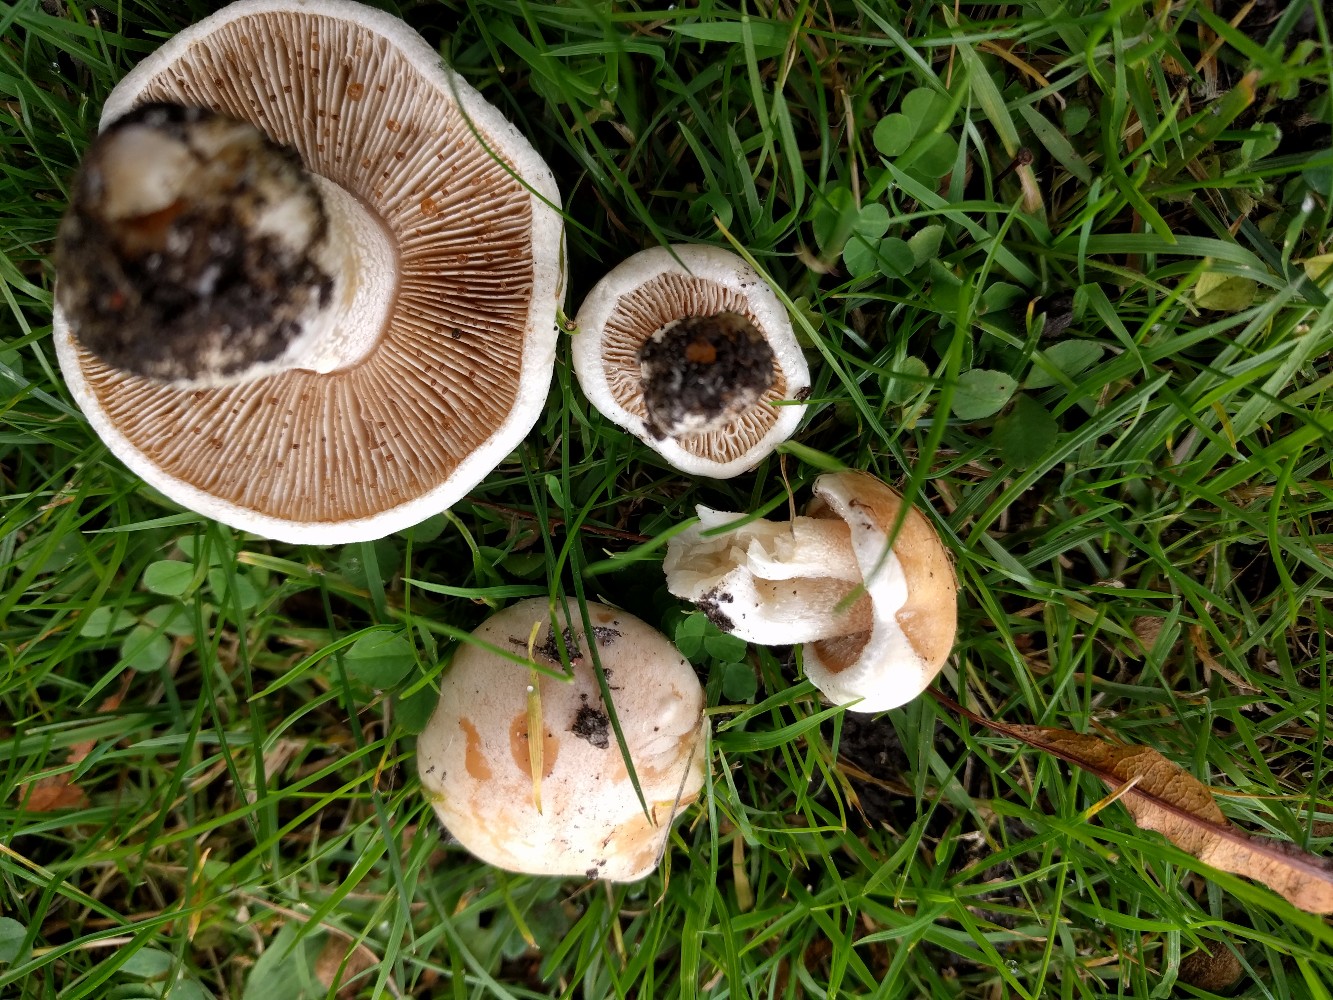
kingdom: Fungi
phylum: Basidiomycota
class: Agaricomycetes
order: Agaricales
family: Hymenogastraceae
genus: Hebeloma
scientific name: Hebeloma crustuliniforme
